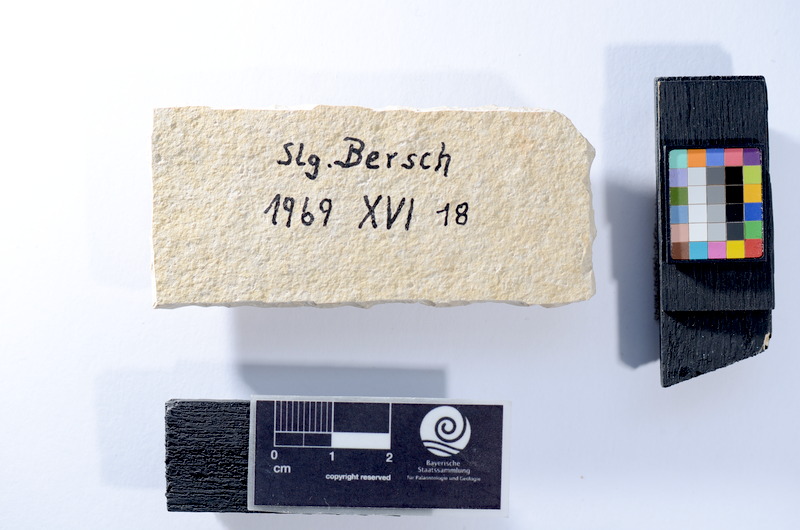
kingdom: Animalia
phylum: Chordata
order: Salmoniformes
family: Orthogonikleithridae
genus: Leptolepides
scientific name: Leptolepides
